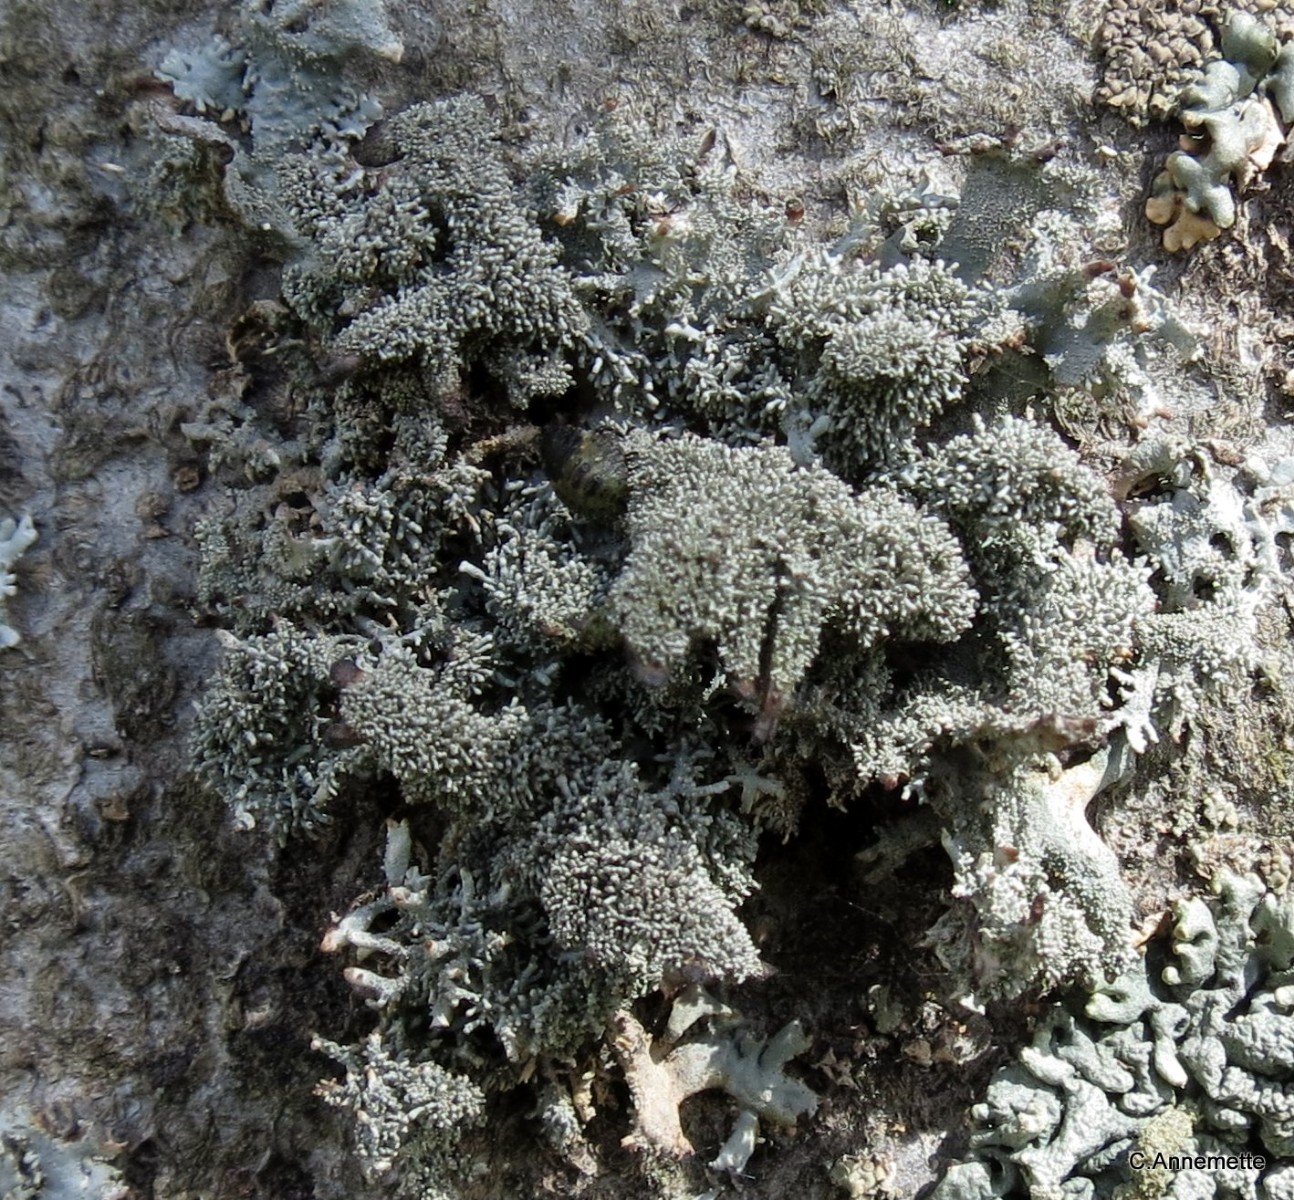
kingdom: Fungi
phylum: Ascomycota
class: Lecanoromycetes
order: Lecanorales
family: Parmeliaceae
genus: Pseudevernia
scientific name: Pseudevernia furfuracea
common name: grå fyrrelav
